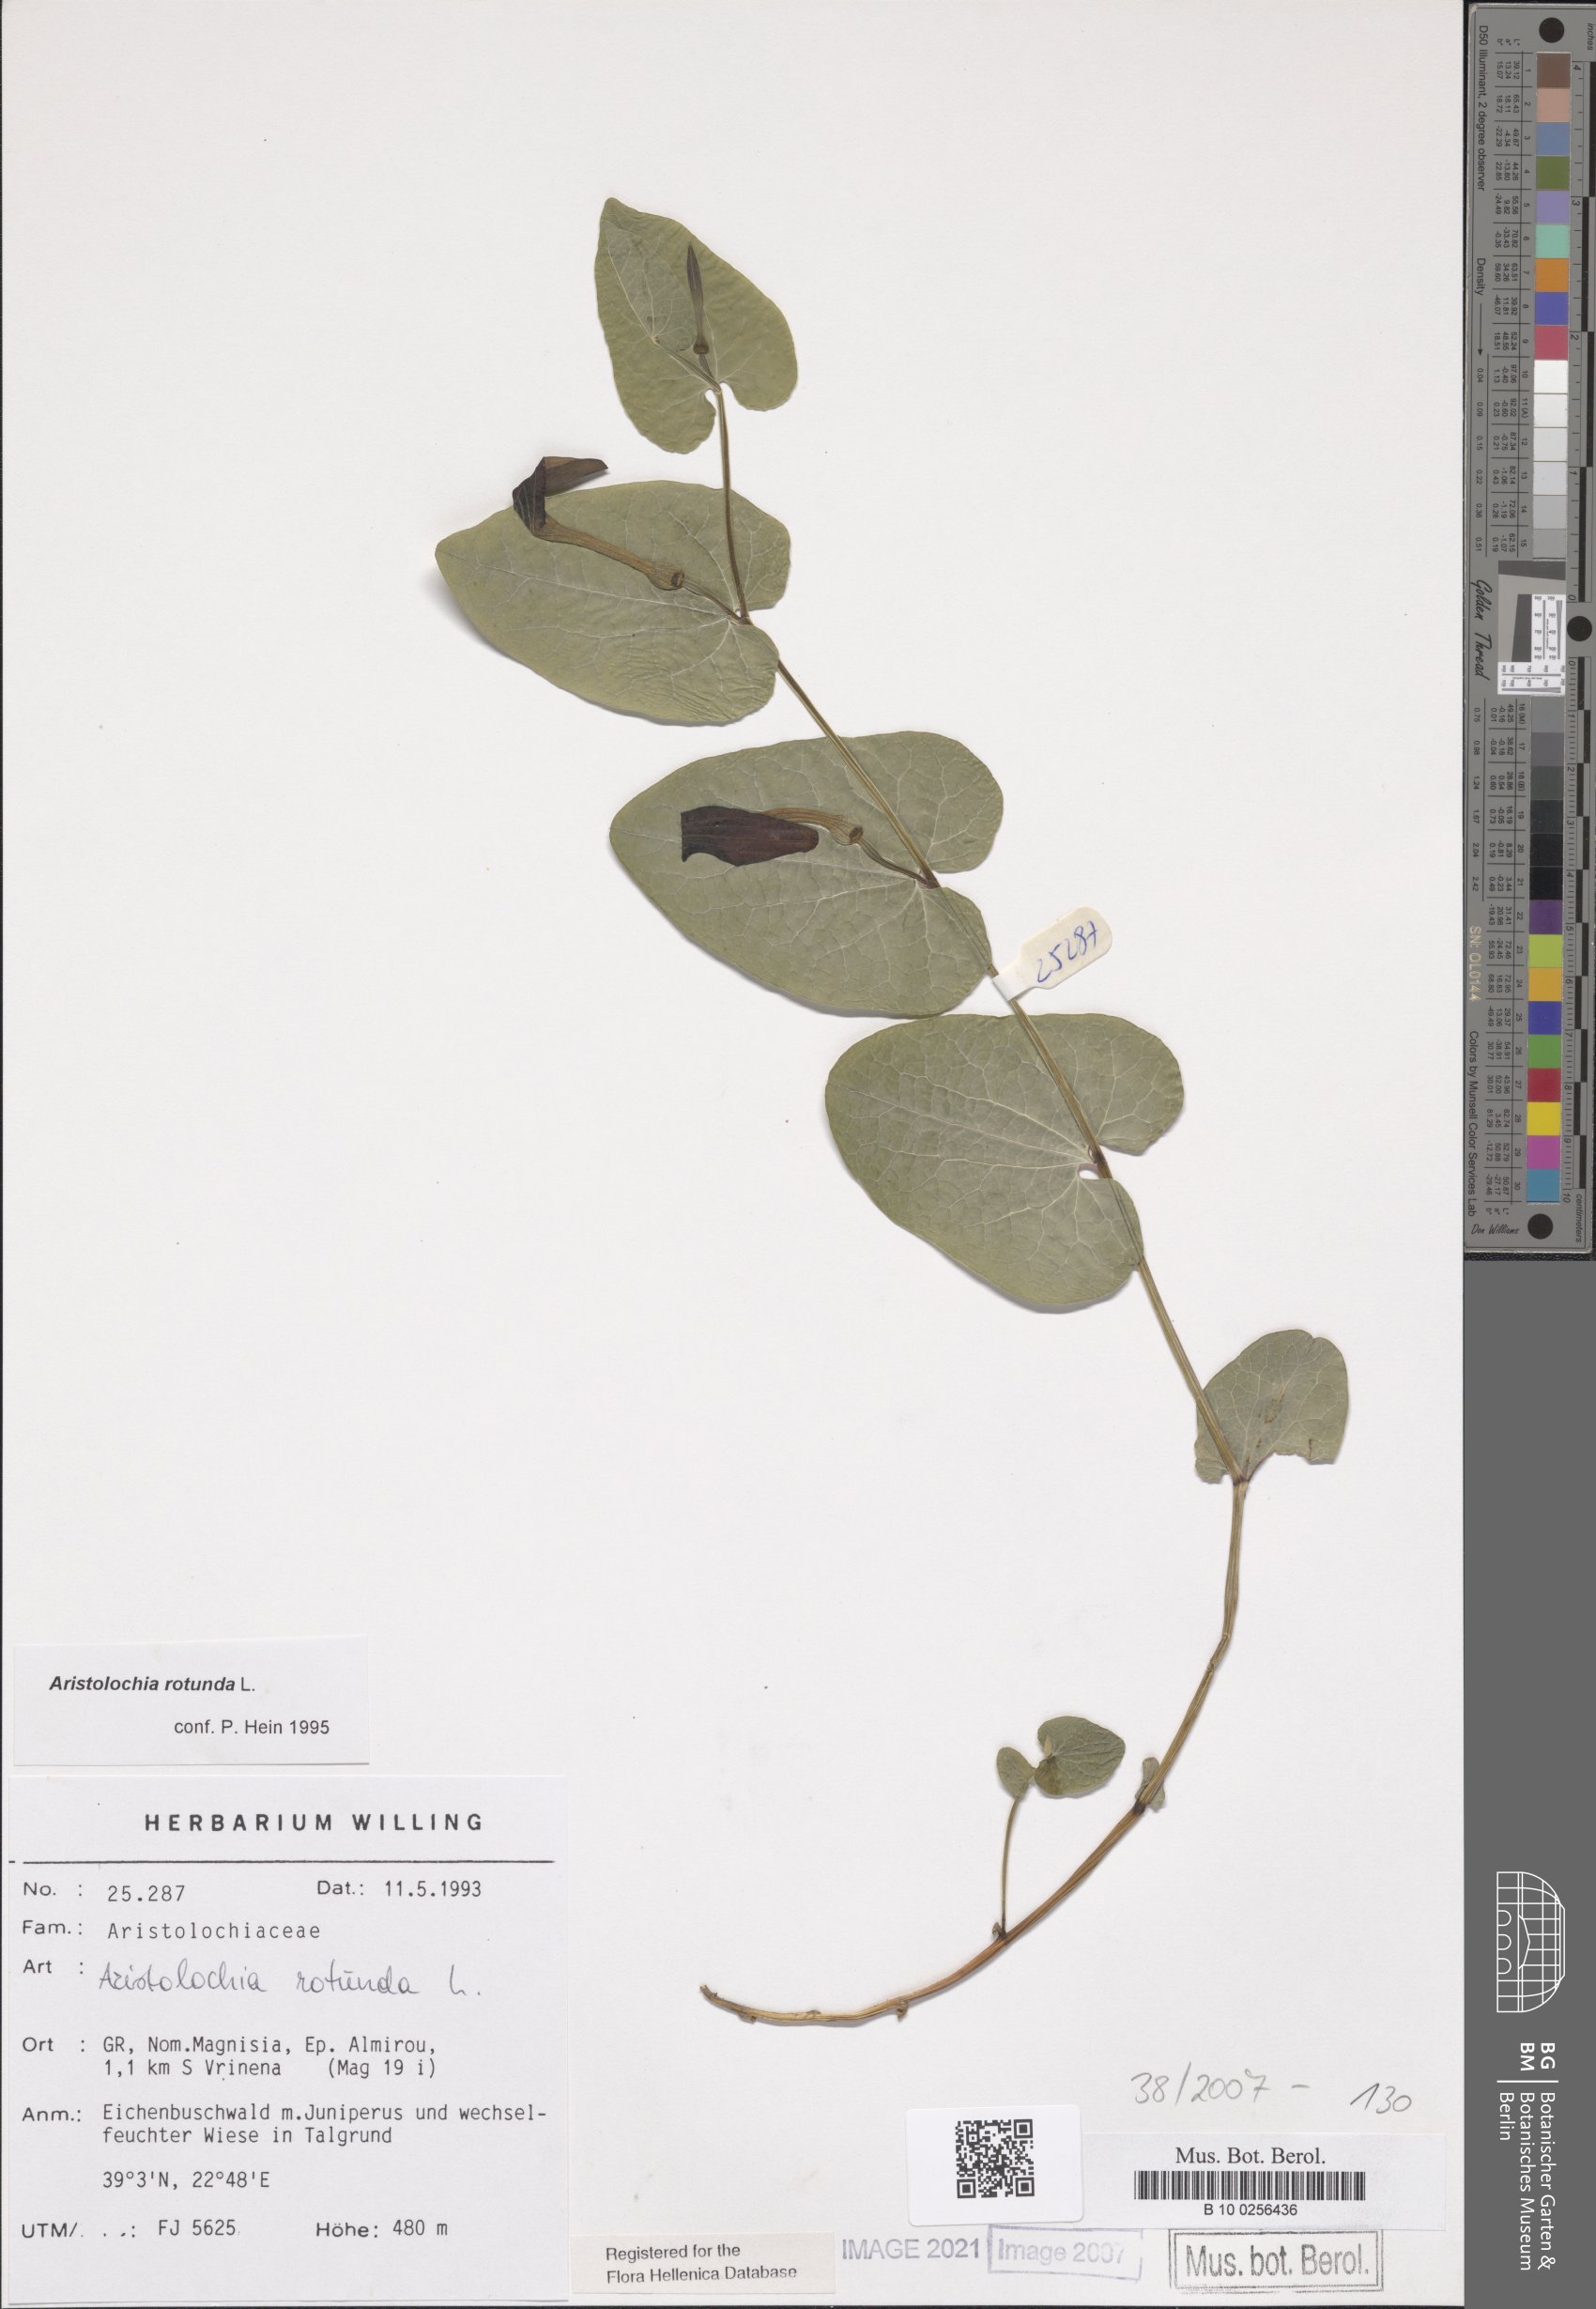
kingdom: Plantae
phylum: Tracheophyta
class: Magnoliopsida
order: Piperales
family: Aristolochiaceae
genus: Aristolochia
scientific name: Aristolochia rotunda
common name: Smearwort
